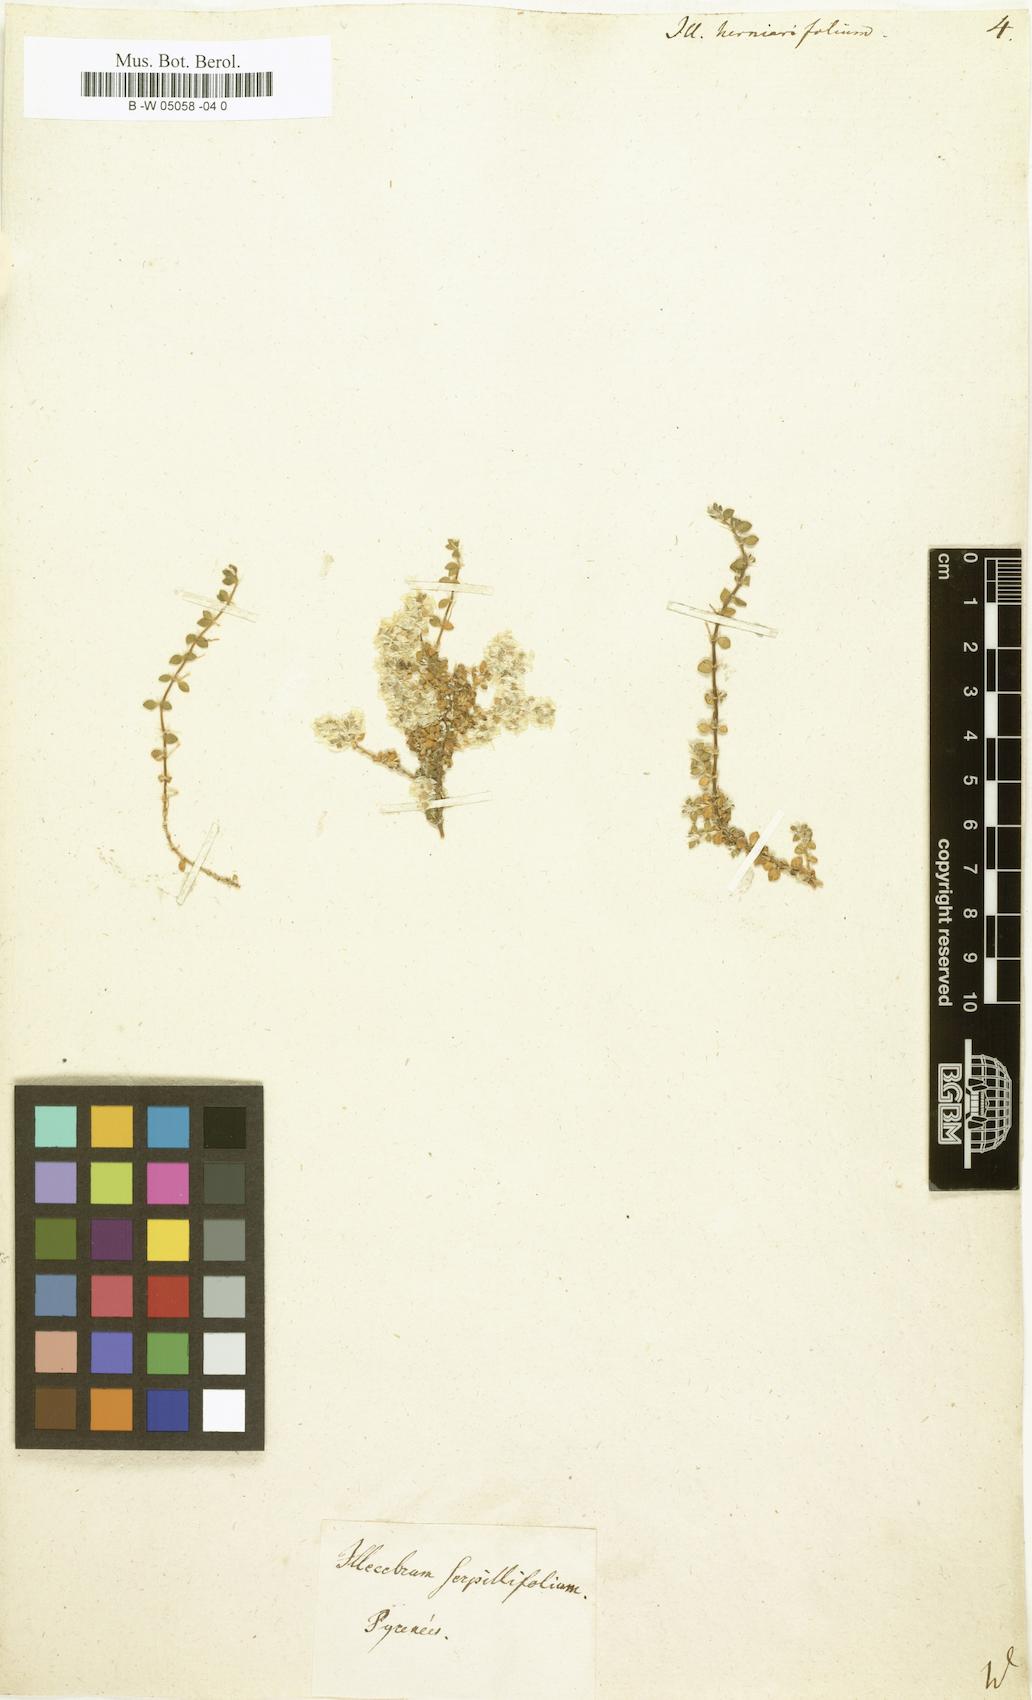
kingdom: Plantae
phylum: Tracheophyta
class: Magnoliopsida
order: Caryophyllales
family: Caryophyllaceae
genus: Illecebrum
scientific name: Illecebrum
